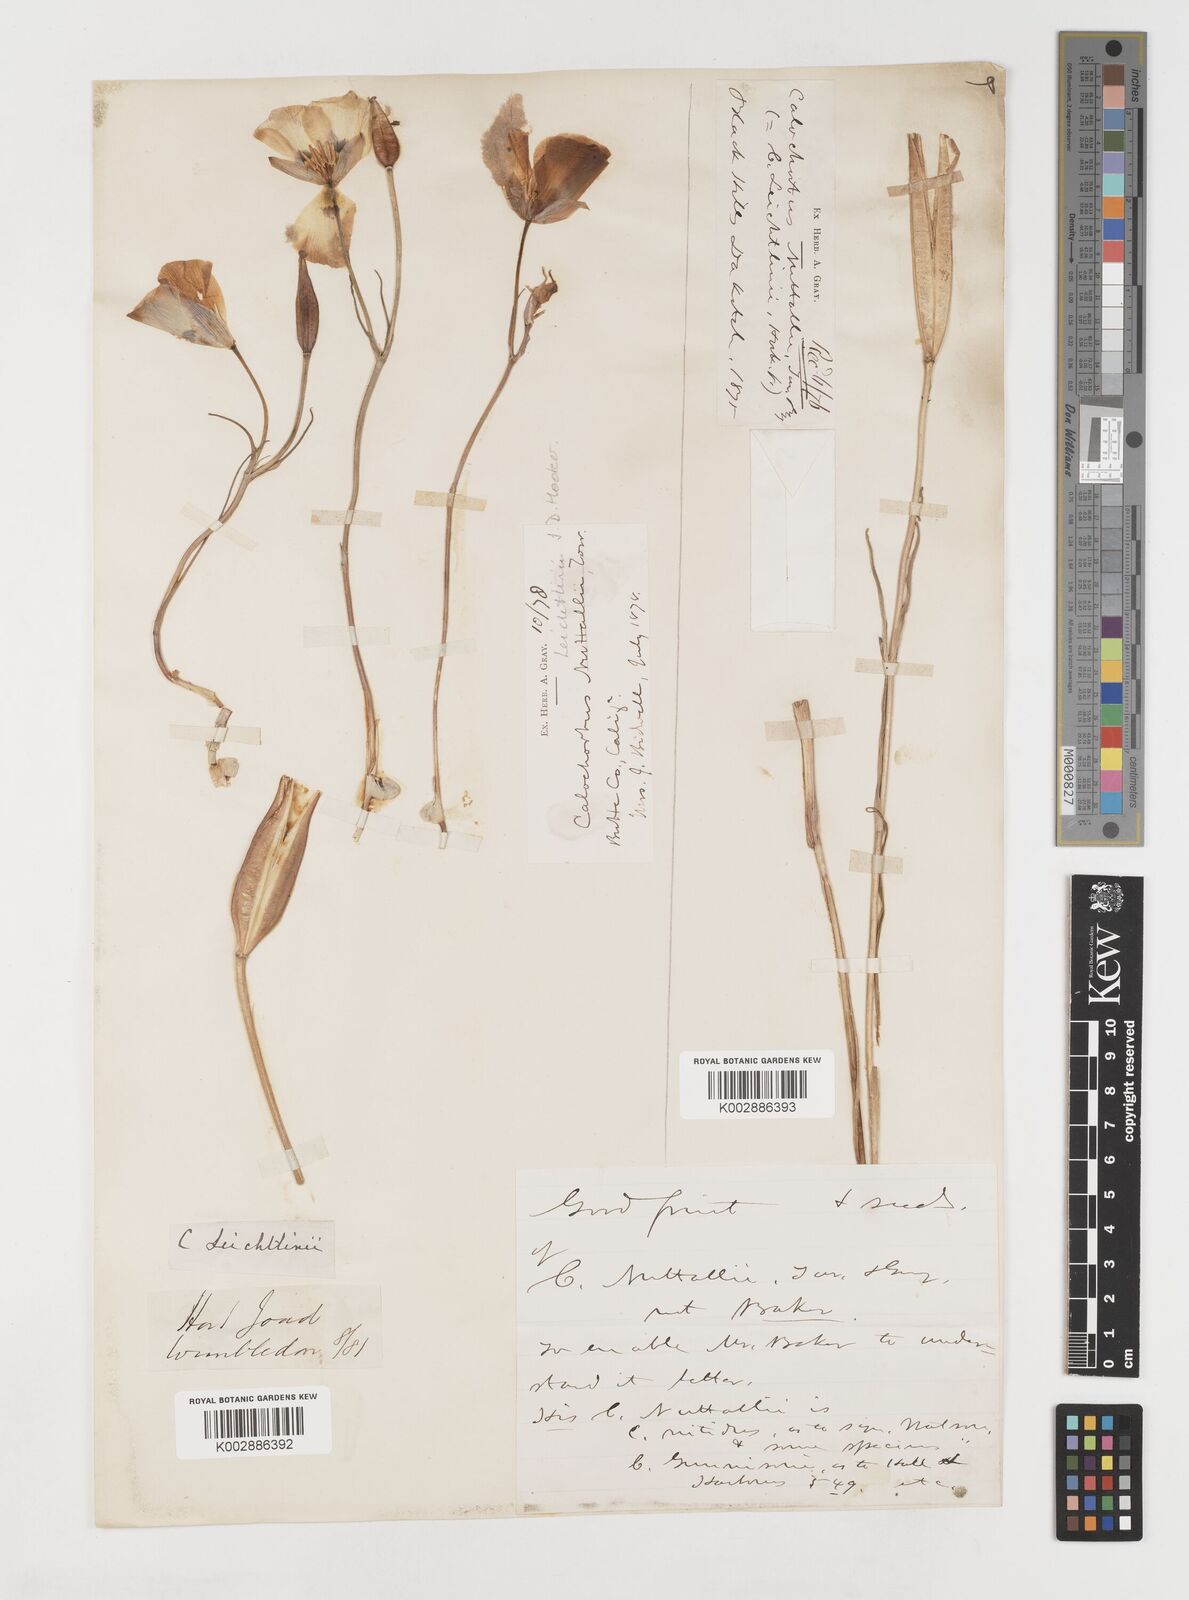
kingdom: Plantae
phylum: Tracheophyta
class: Liliopsida
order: Liliales
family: Liliaceae
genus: Calochortus
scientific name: Calochortus leichtlinii
